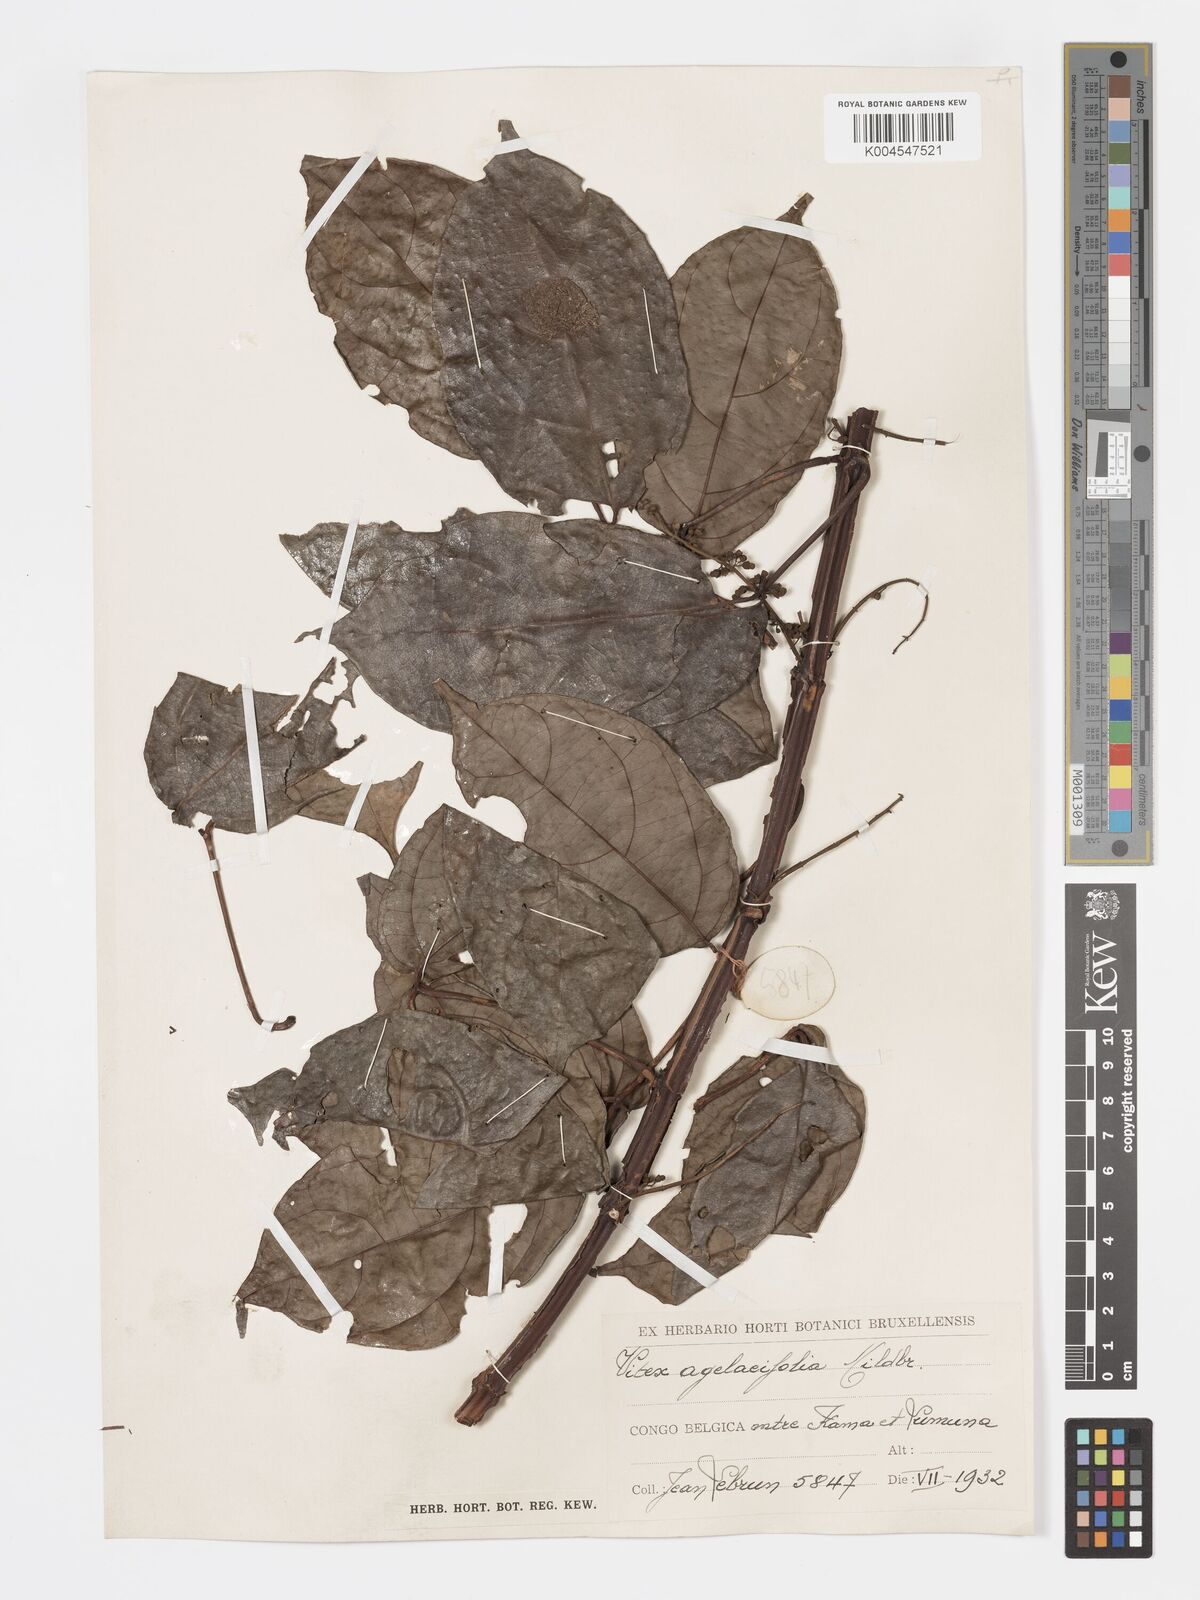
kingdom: Plantae
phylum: Tracheophyta
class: Magnoliopsida
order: Lamiales
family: Lamiaceae
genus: Vitex
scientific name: Vitex agelaeifolia
